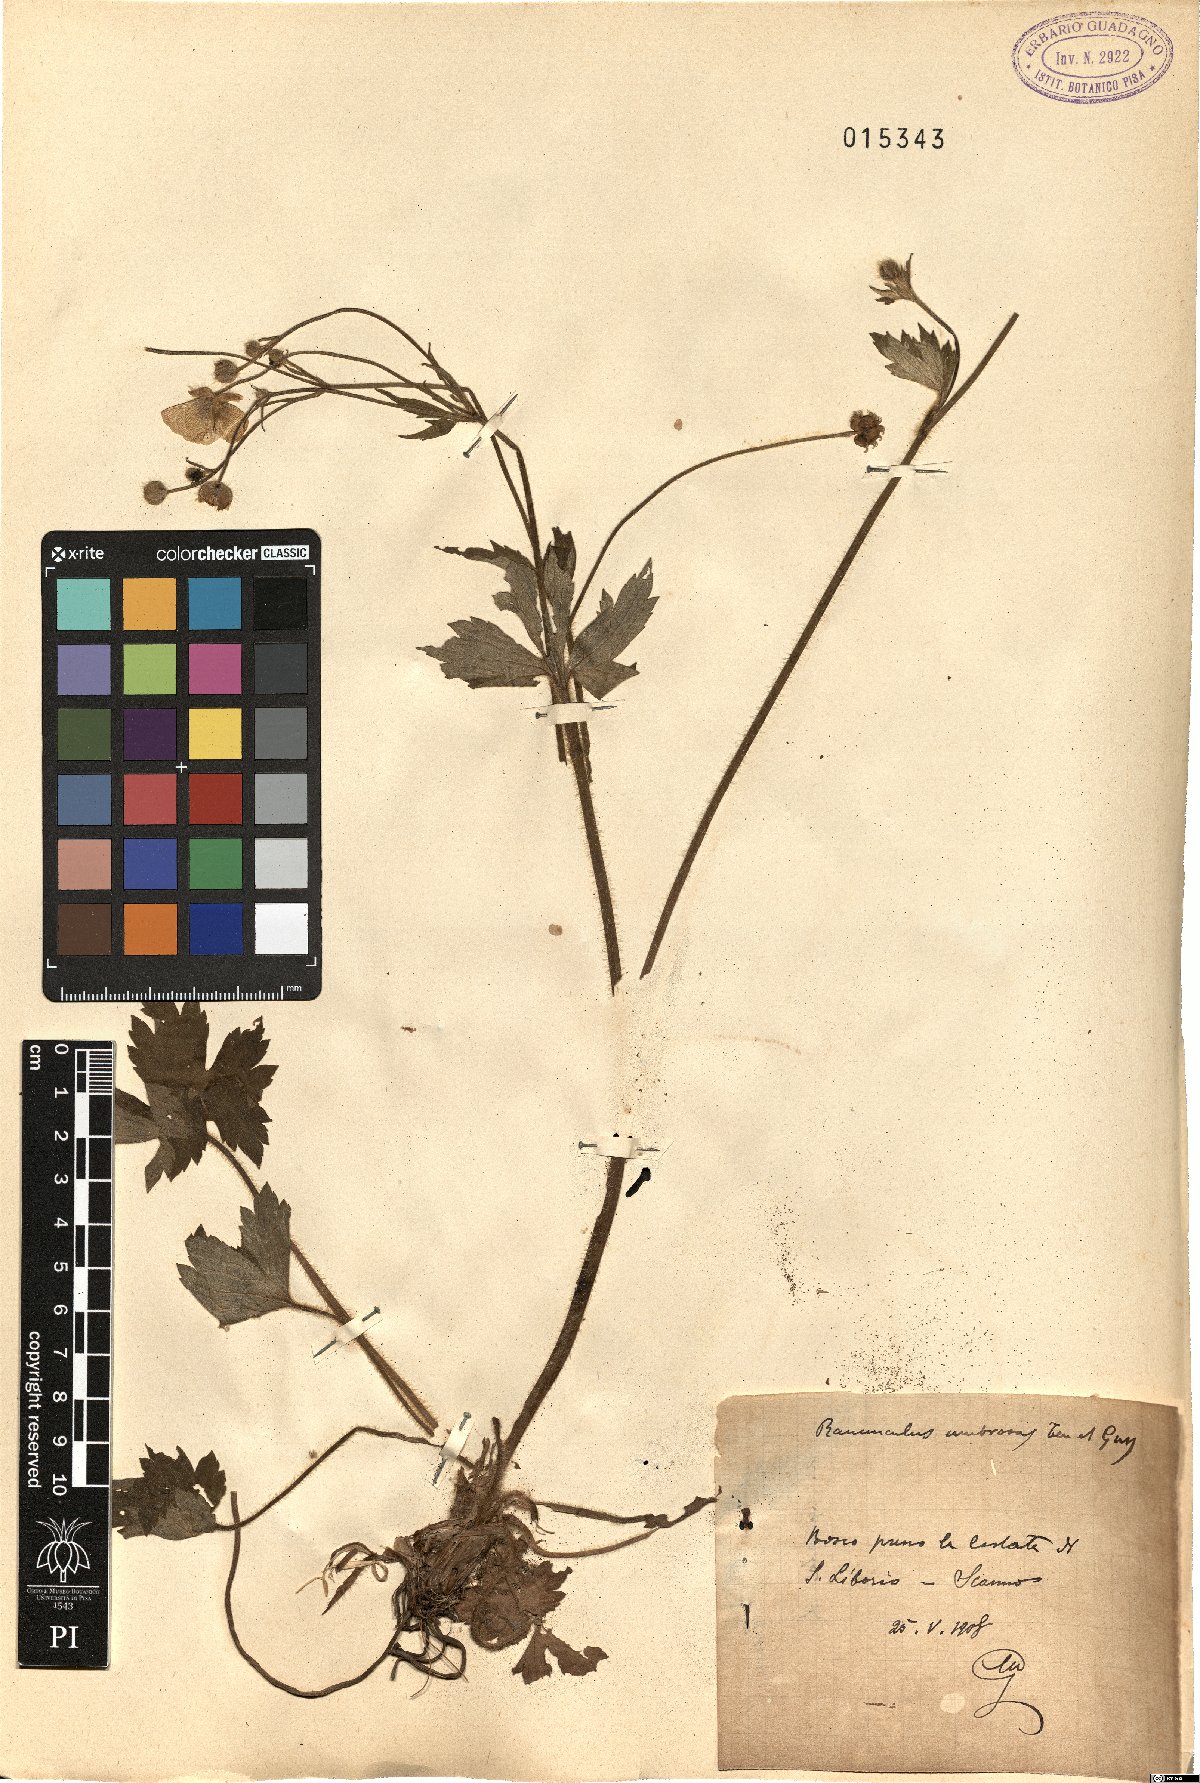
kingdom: Plantae
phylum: Tracheophyta
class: Magnoliopsida
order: Ranunculales
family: Ranunculaceae
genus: Ranunculus
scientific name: Ranunculus lanuginosus
